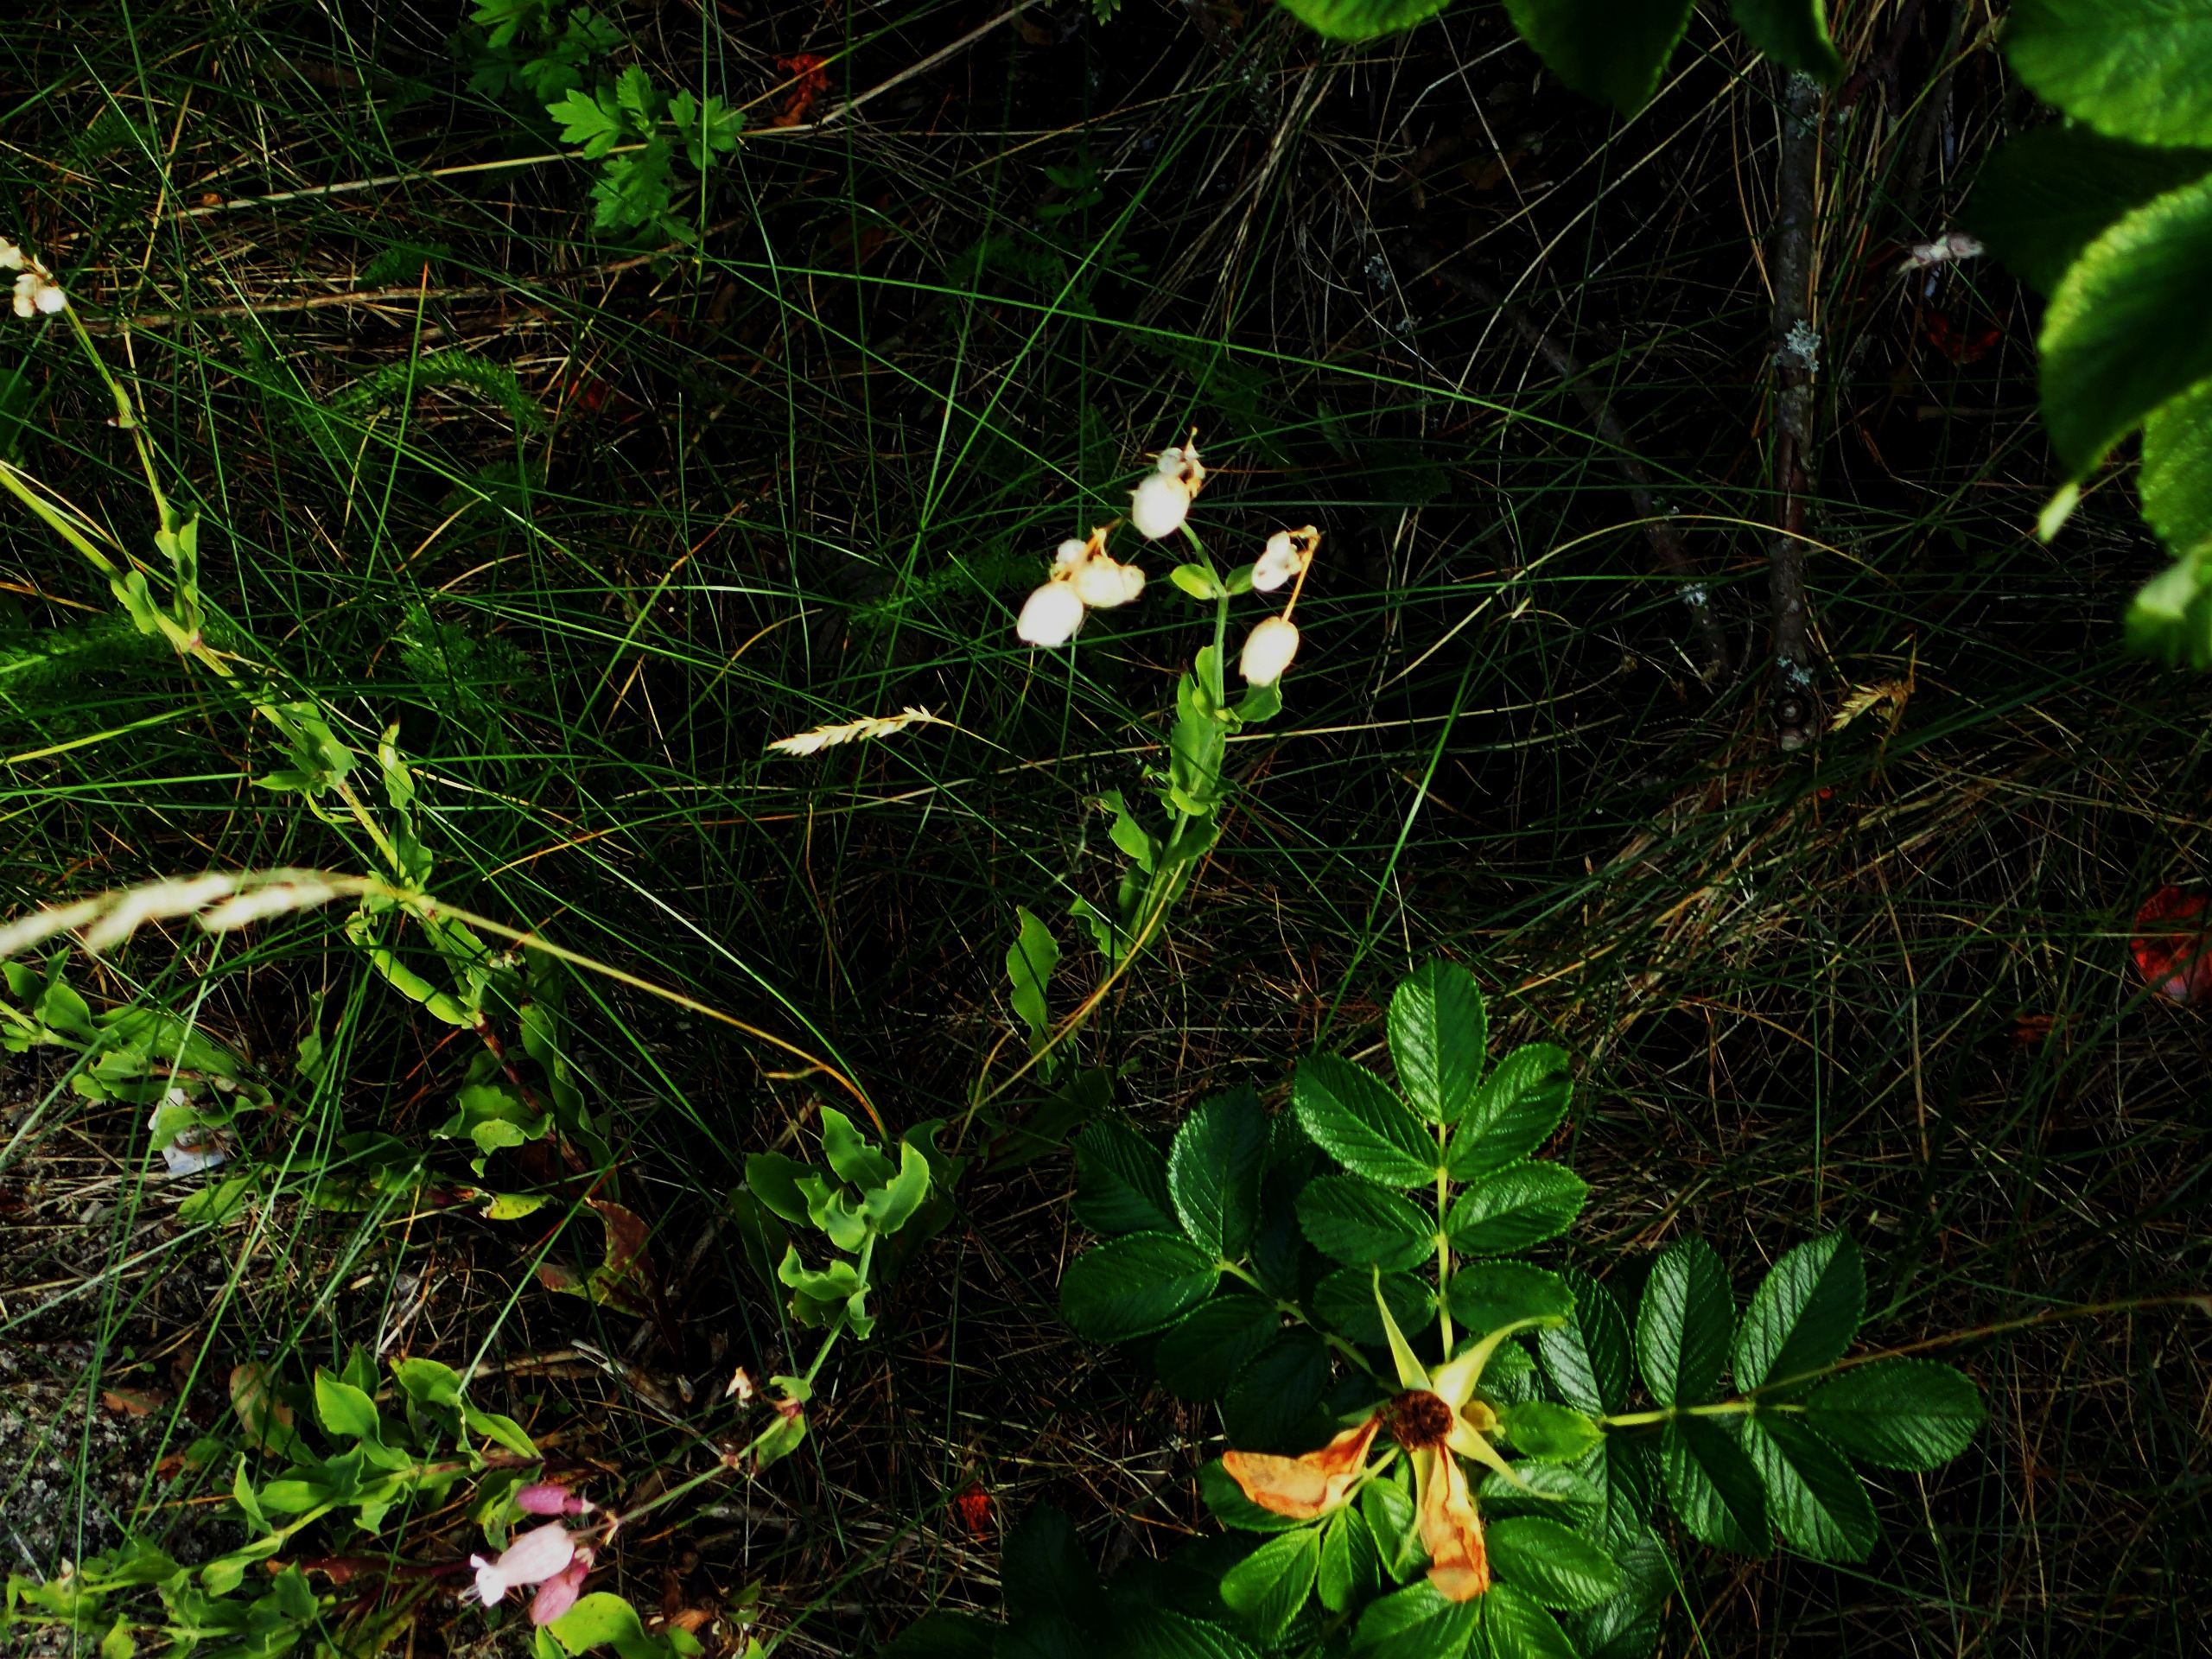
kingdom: Plantae
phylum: Tracheophyta
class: Magnoliopsida
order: Caryophyllales
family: Caryophyllaceae
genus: Silene
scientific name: Silene vulgaris
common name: Blæresmælde
